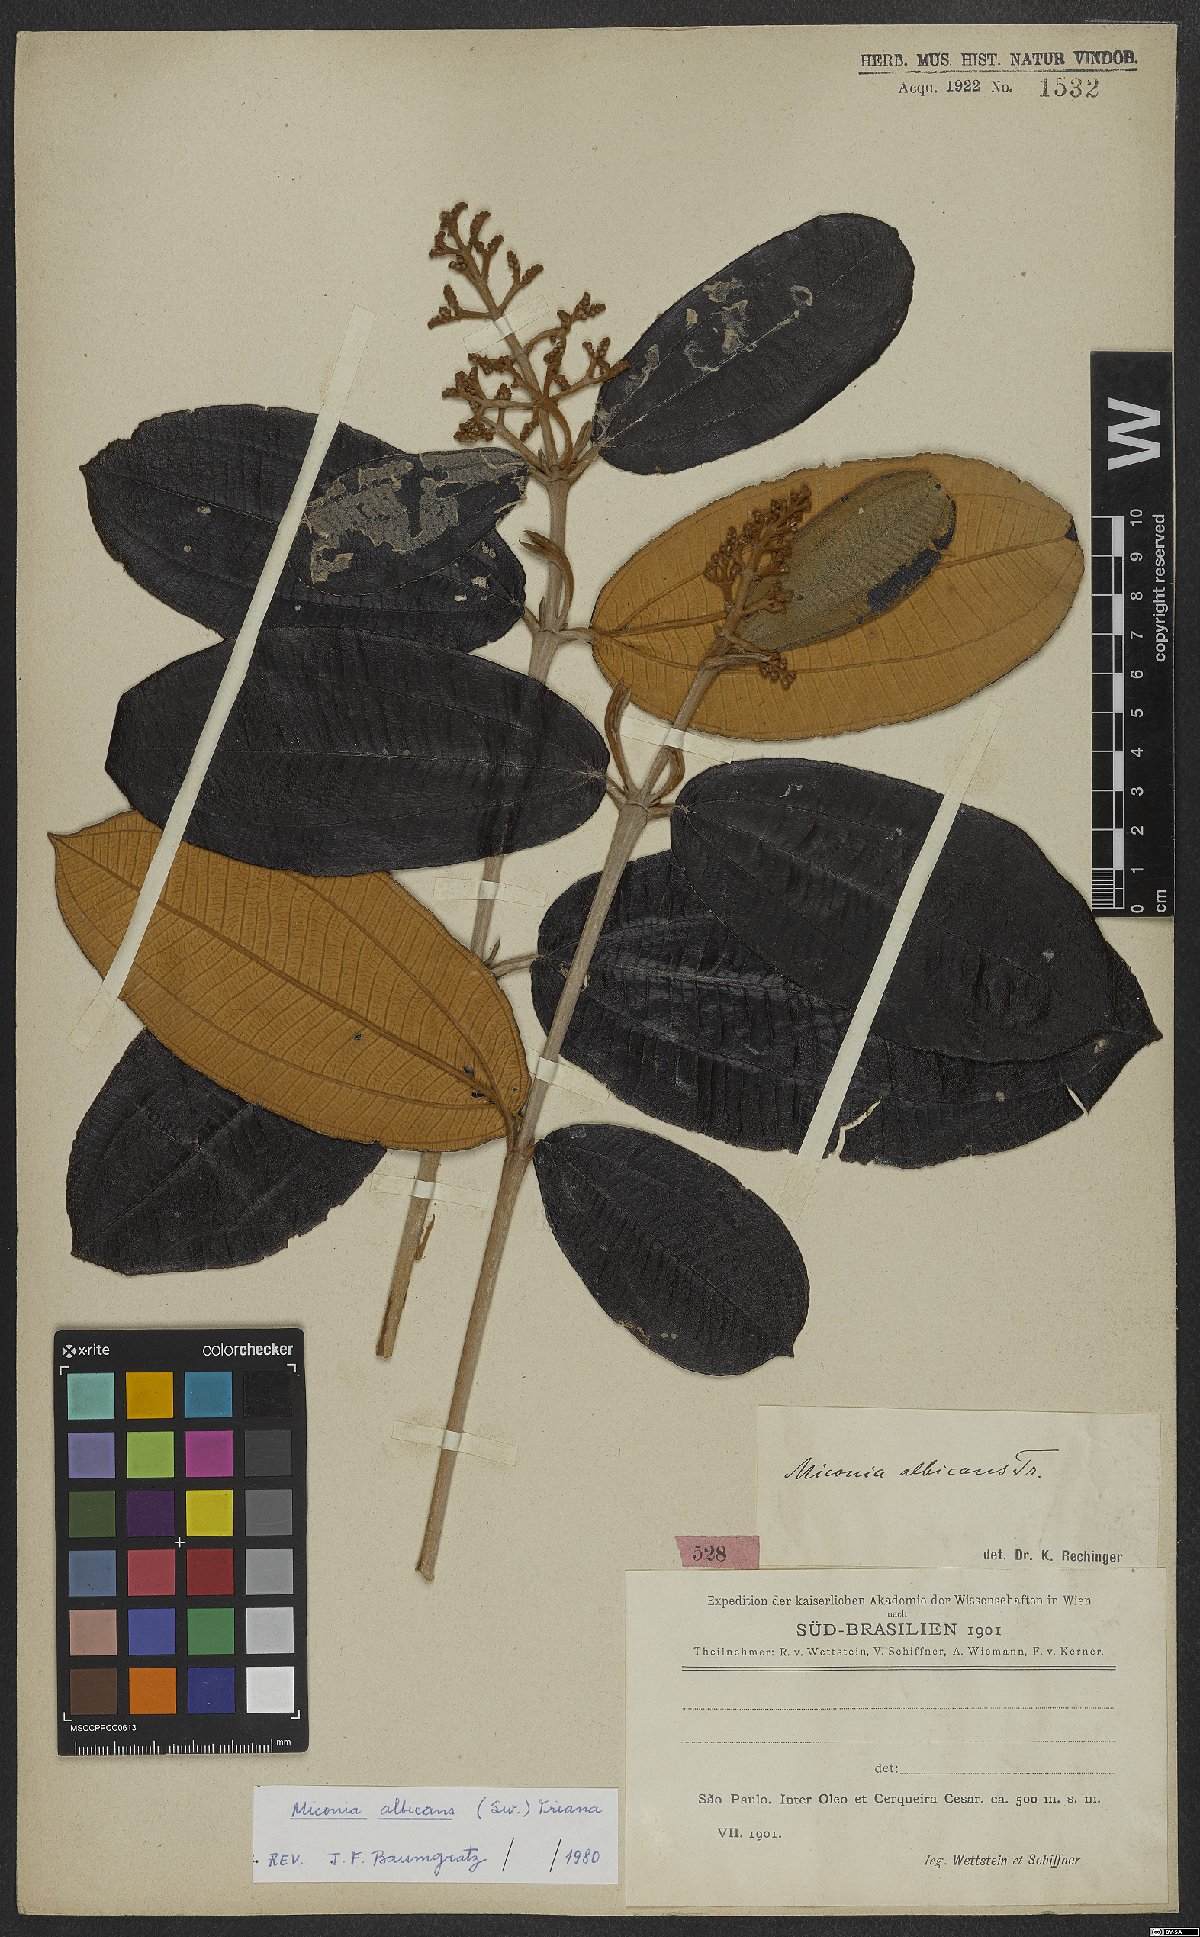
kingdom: Plantae
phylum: Tracheophyta
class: Magnoliopsida
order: Myrtales
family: Melastomataceae
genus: Miconia
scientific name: Miconia albicans
